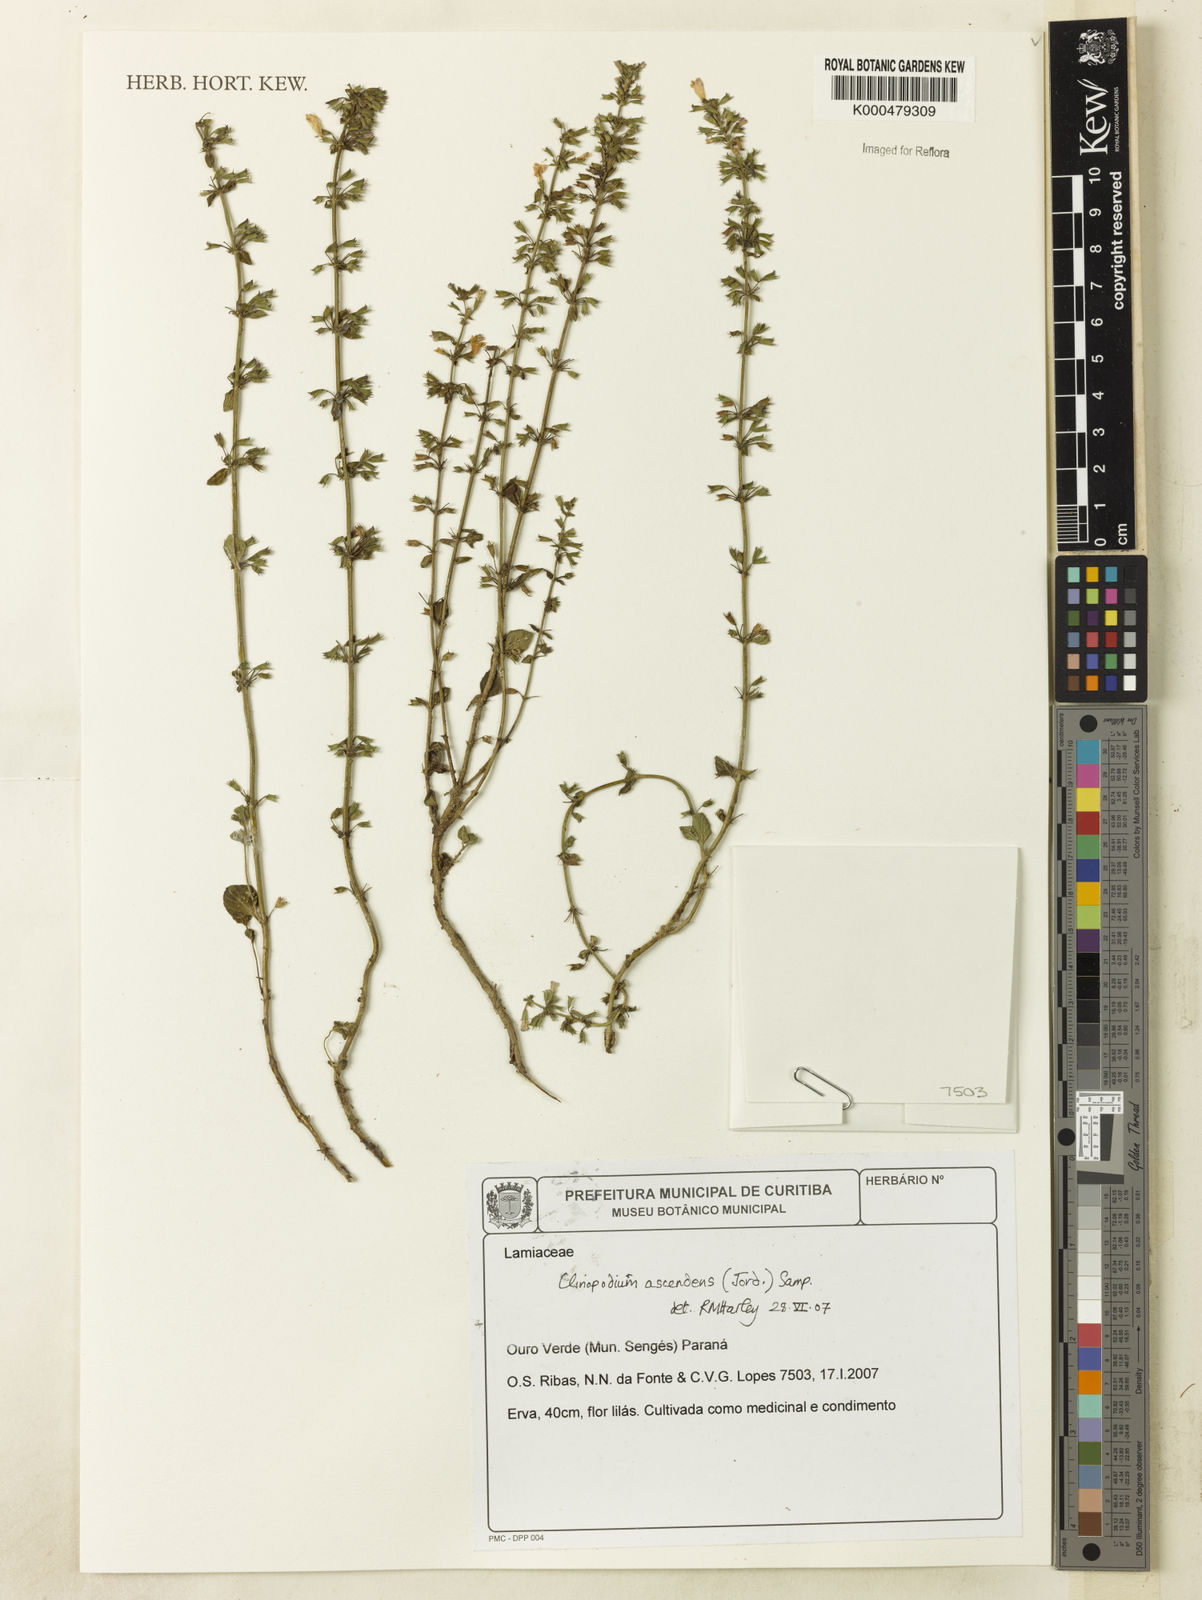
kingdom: Plantae
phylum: Tracheophyta
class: Magnoliopsida
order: Lamiales
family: Lamiaceae
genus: Clinopodium
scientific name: Clinopodium menthifolium
